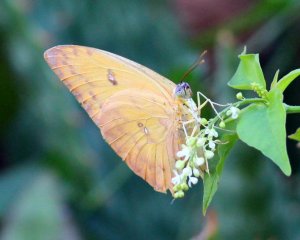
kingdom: Animalia
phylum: Arthropoda
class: Insecta
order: Lepidoptera
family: Pieridae
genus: Phoebis
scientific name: Phoebis philea
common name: Orange-barred Sulphur
